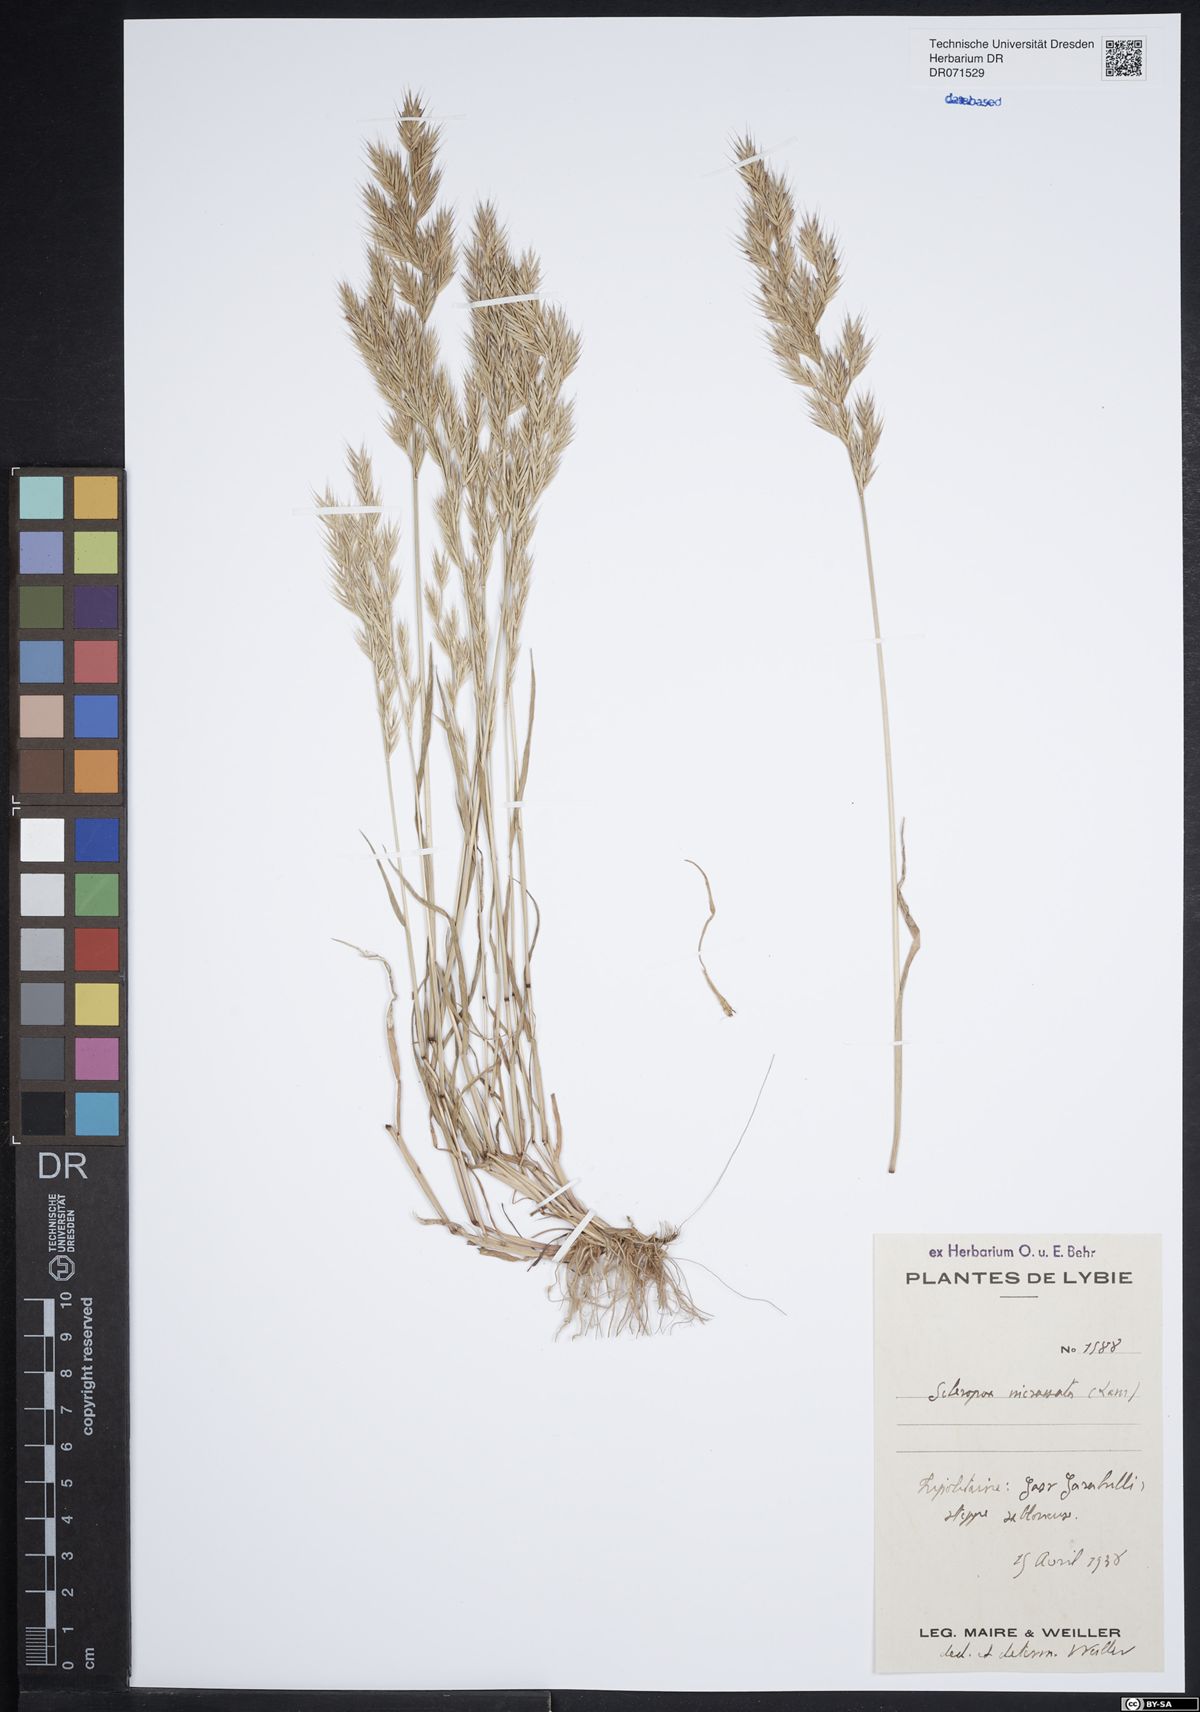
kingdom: Plantae
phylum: Tracheophyta
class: Liliopsida
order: Poales
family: Poaceae
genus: Catapodium
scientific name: Catapodium
